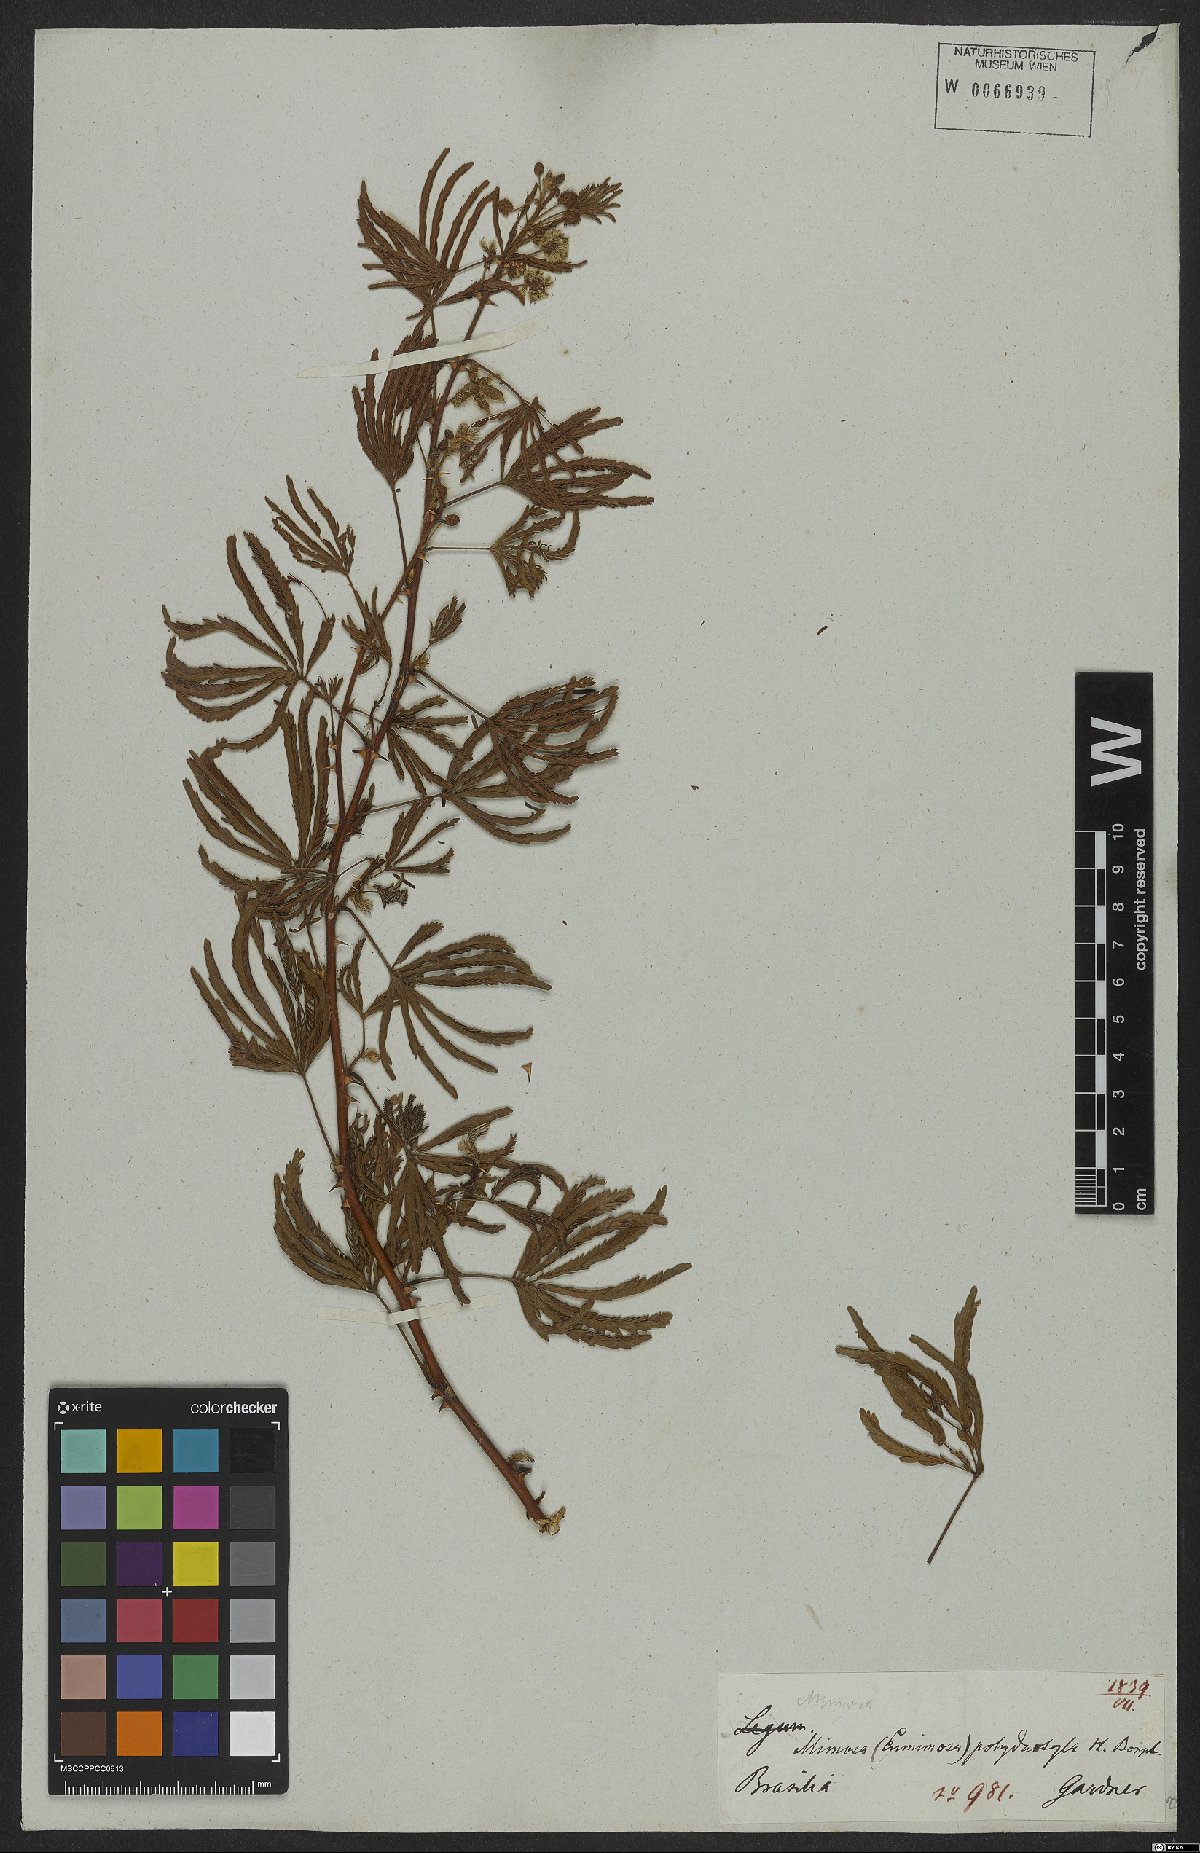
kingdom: Plantae
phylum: Tracheophyta
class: Magnoliopsida
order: Fabales
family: Fabaceae
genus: Mimosa
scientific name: Mimosa polydactyla
